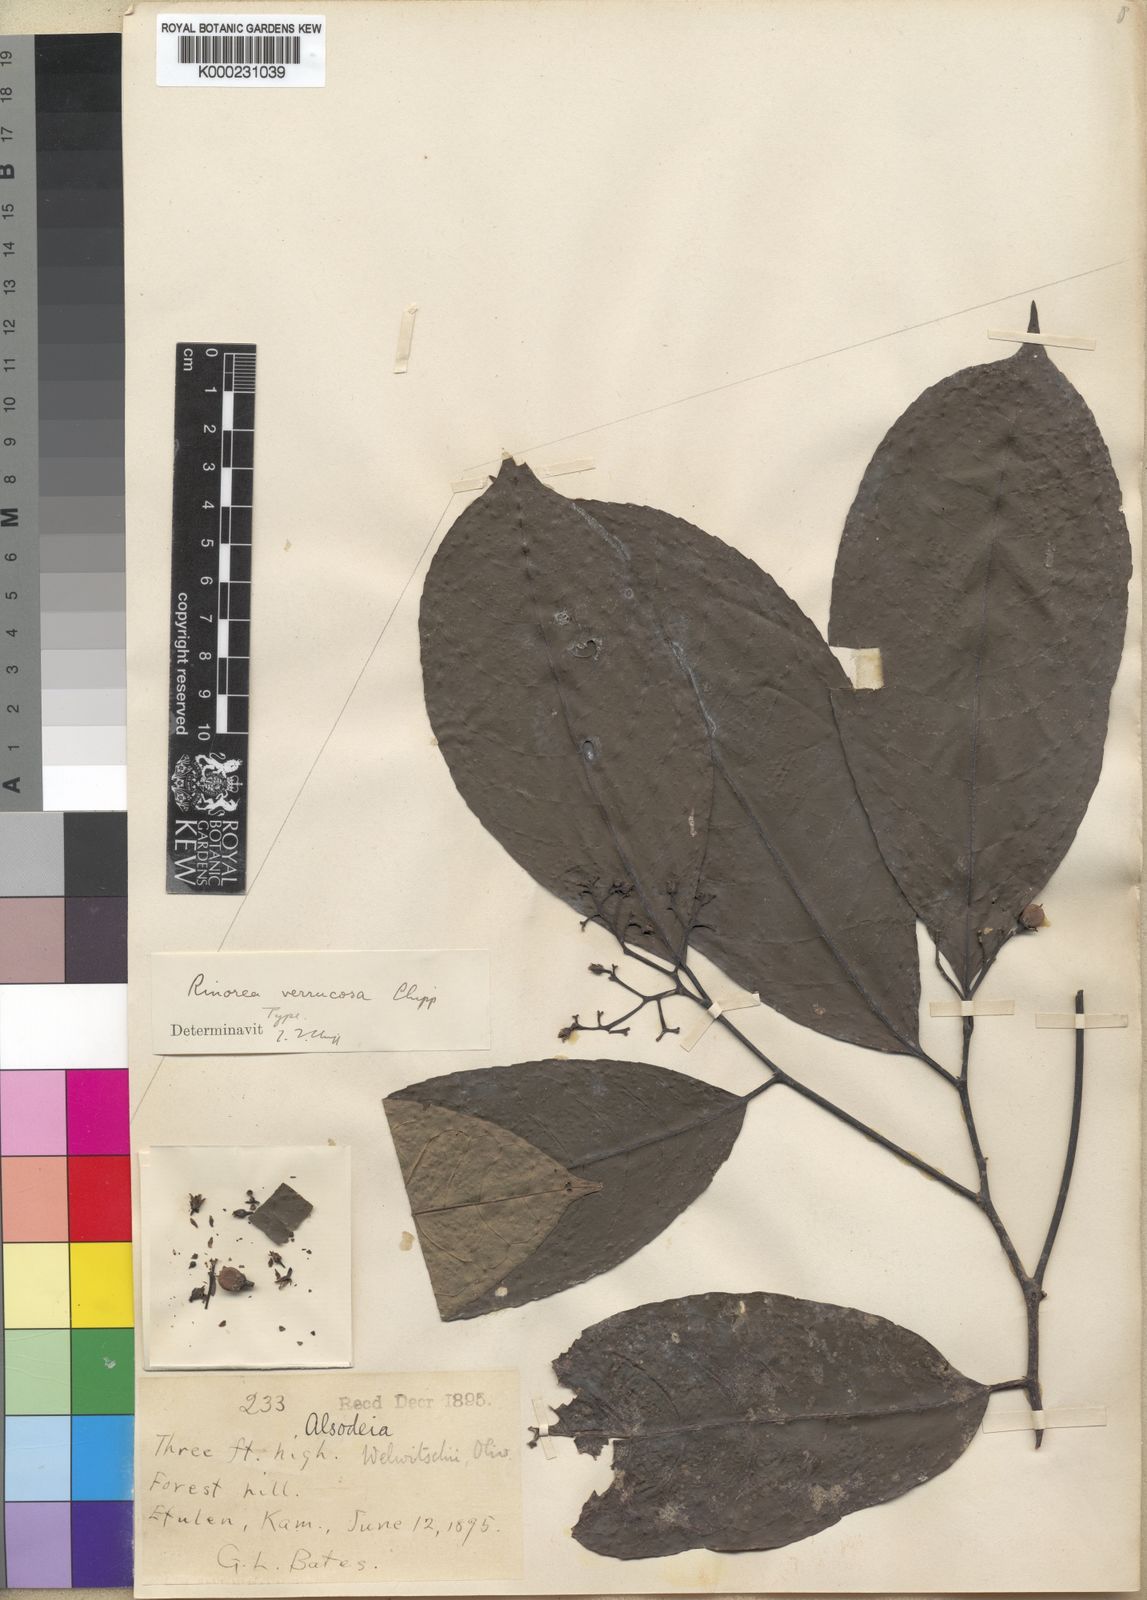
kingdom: Plantae
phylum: Tracheophyta
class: Magnoliopsida
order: Malpighiales
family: Violaceae
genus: Rinorea
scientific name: Rinorea verrucosa
